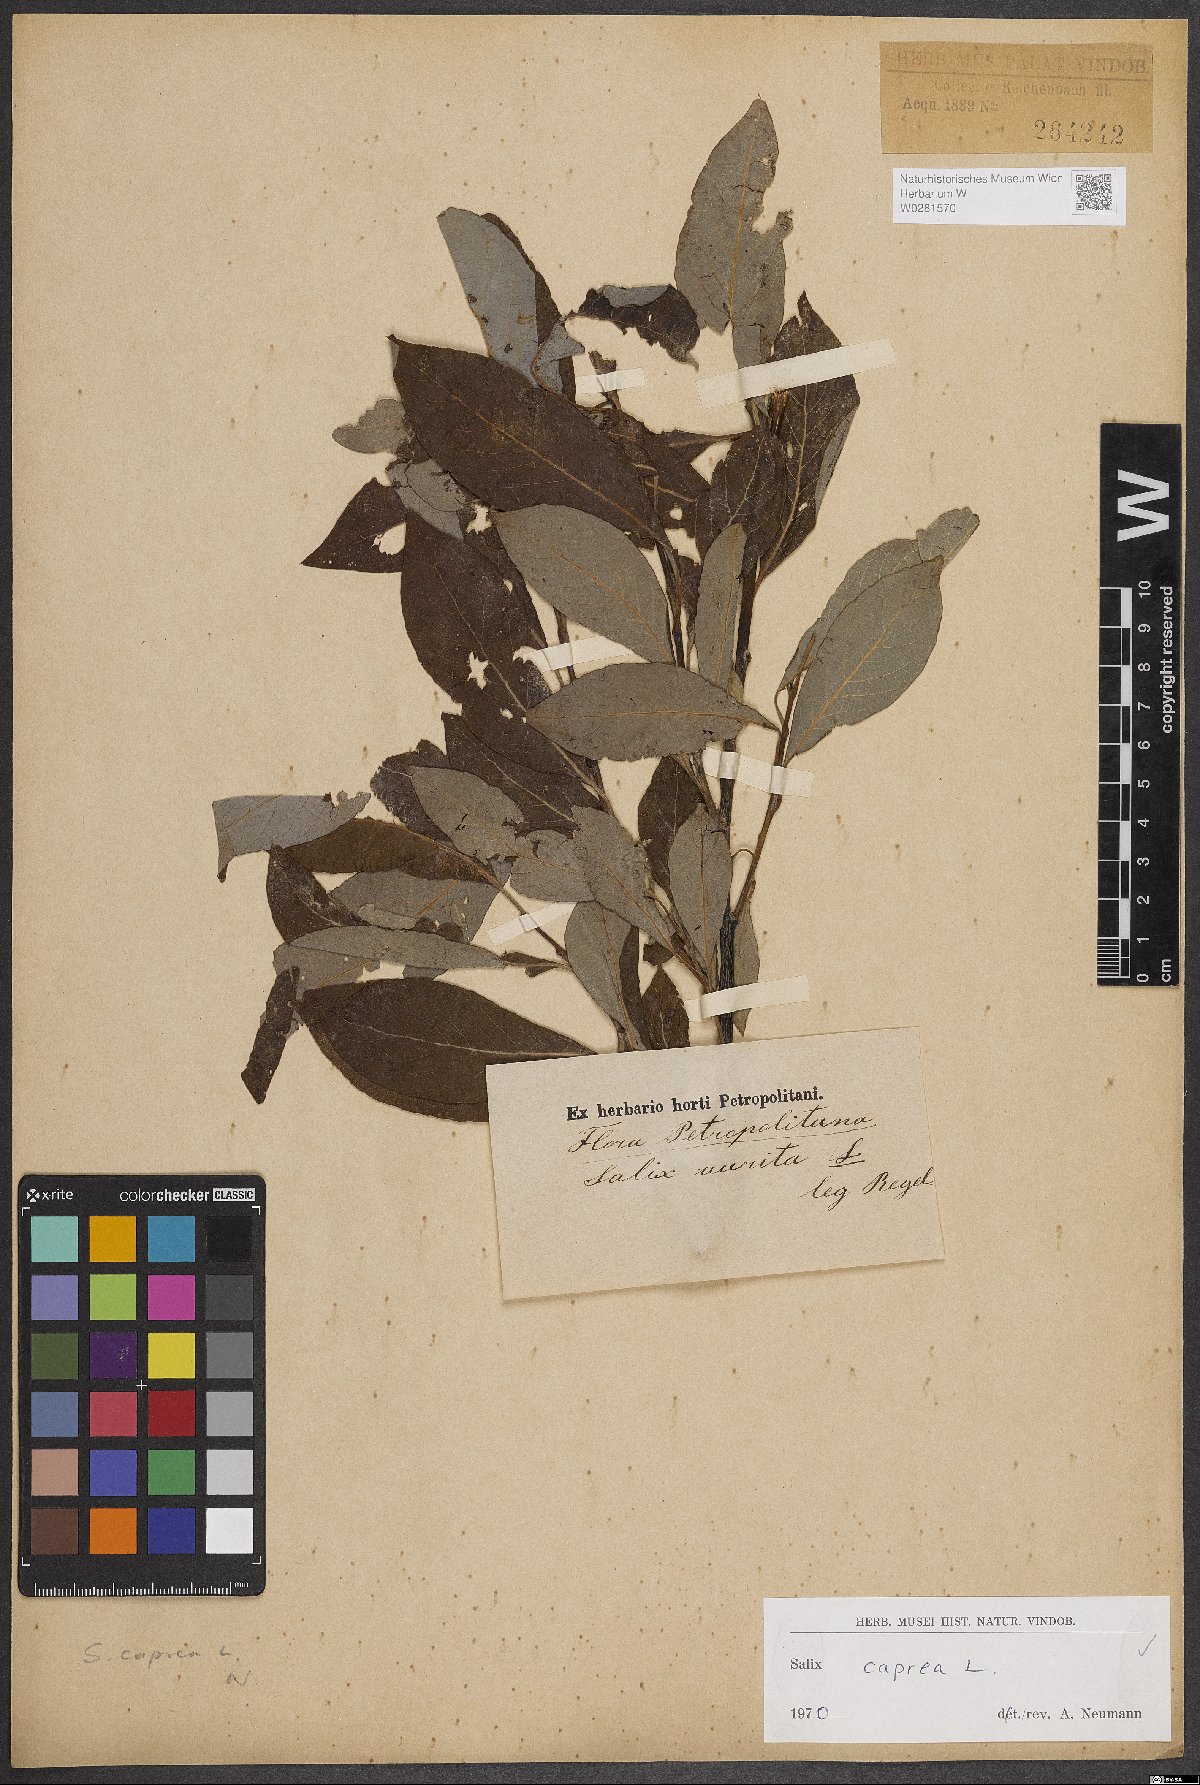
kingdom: Plantae
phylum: Tracheophyta
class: Magnoliopsida
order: Malpighiales
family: Salicaceae
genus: Salix
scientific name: Salix caprea
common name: Goat willow
